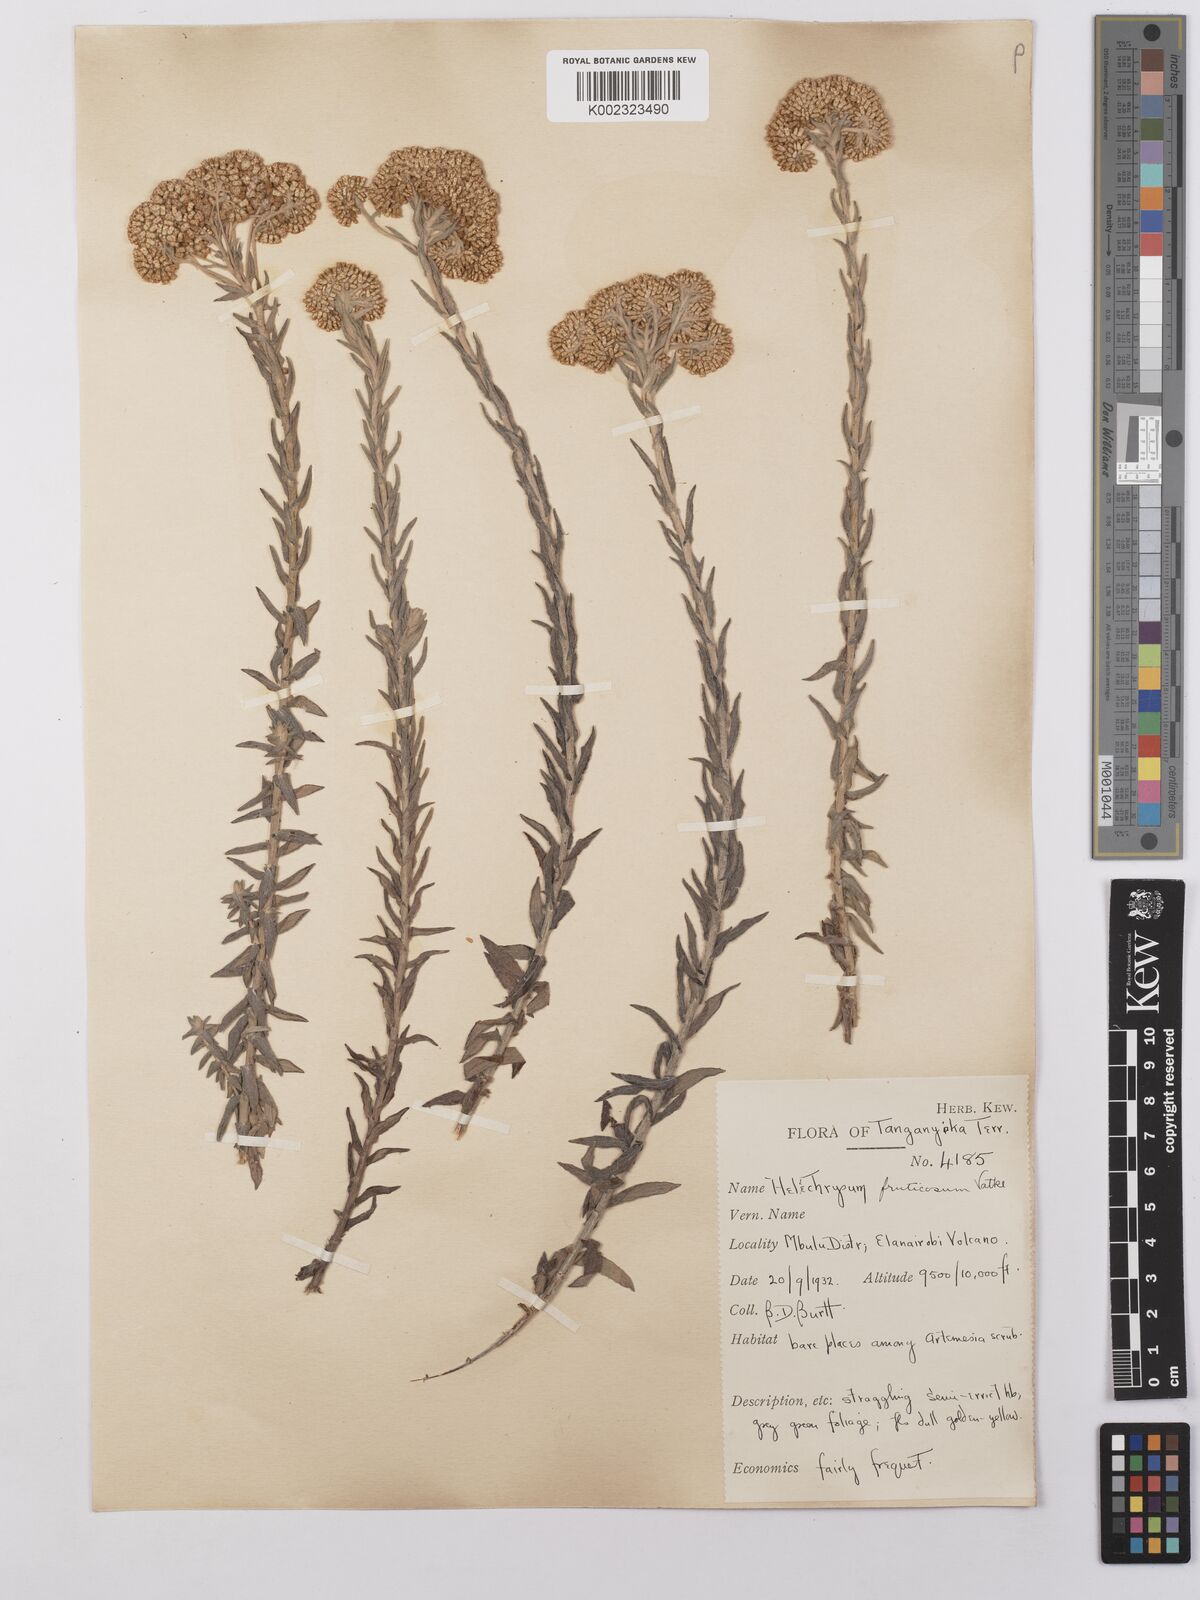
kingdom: Plantae
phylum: Tracheophyta
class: Magnoliopsida
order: Asterales
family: Asteraceae
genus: Helichrysum
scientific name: Helichrysum forskahlii
